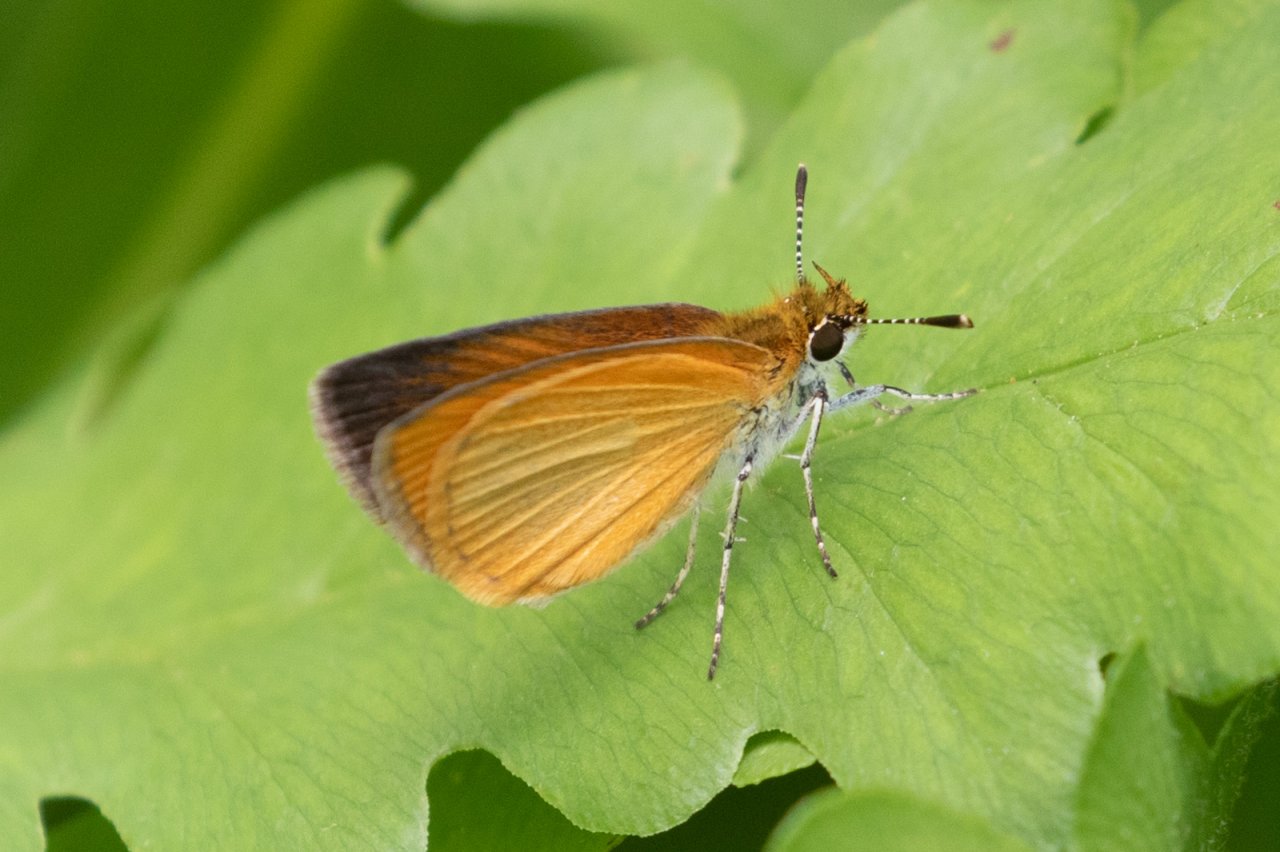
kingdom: Animalia
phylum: Arthropoda
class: Insecta
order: Lepidoptera
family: Hesperiidae
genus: Ancyloxypha
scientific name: Ancyloxypha numitor
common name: Least Skipper
